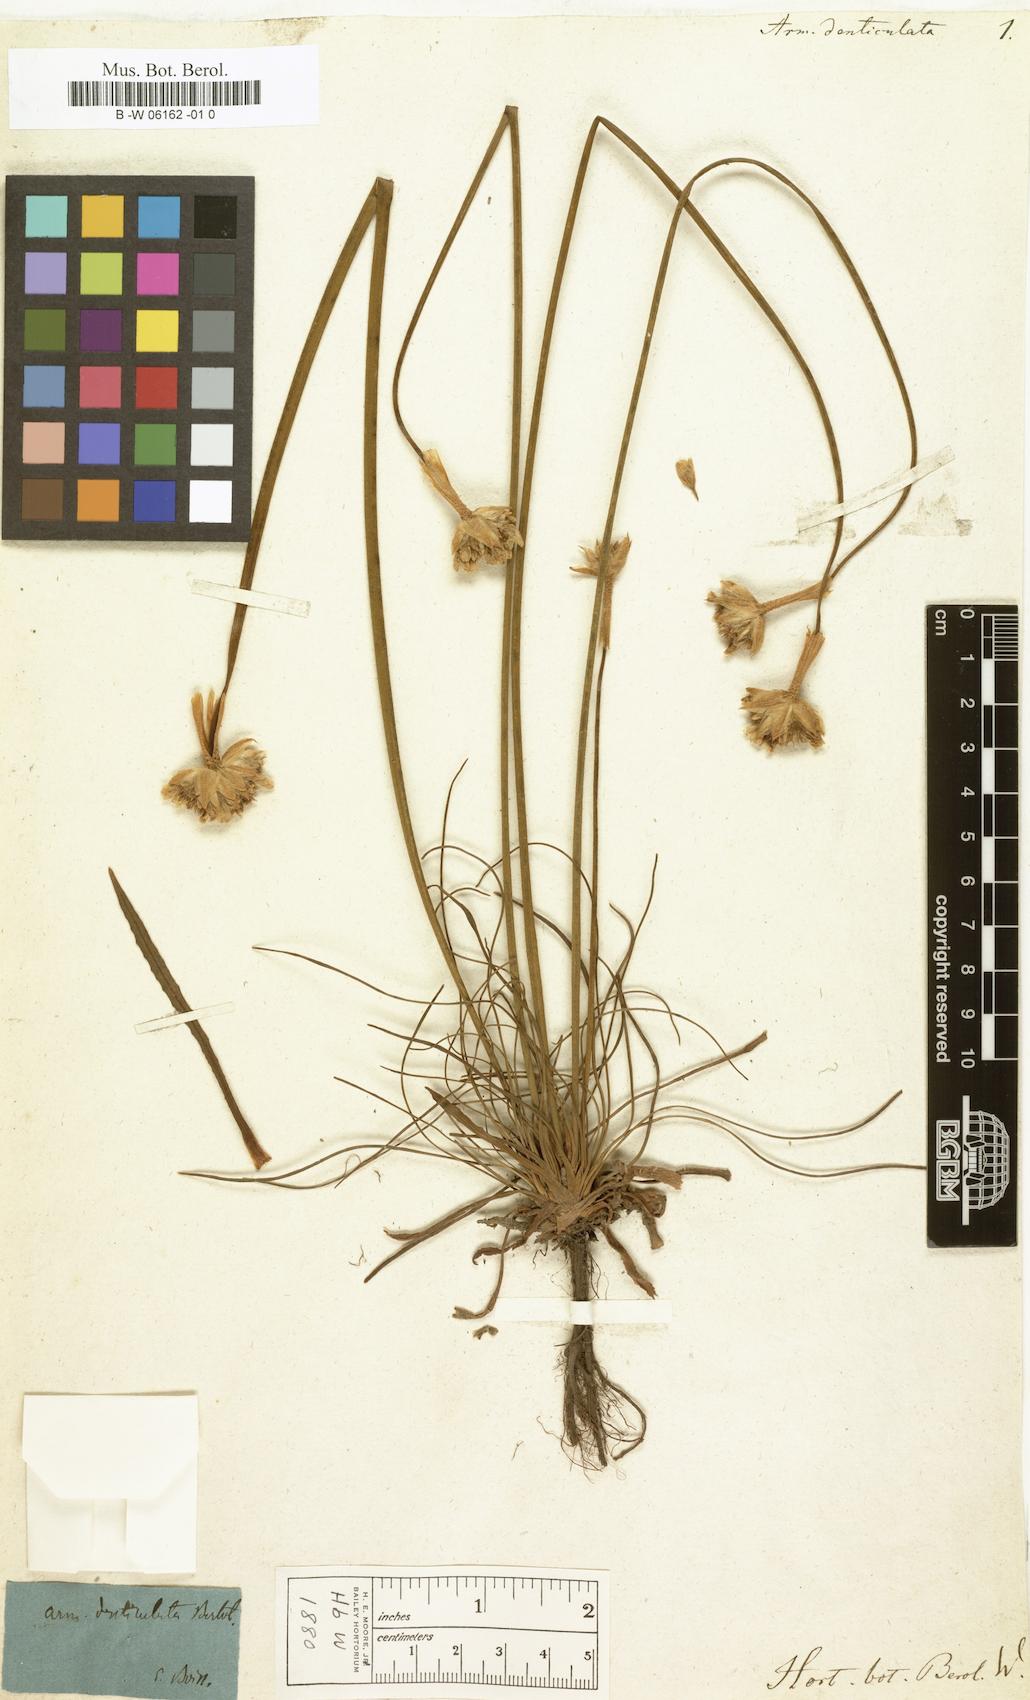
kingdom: Plantae
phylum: Tracheophyta
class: Magnoliopsida
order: Caryophyllales
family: Plumbaginaceae
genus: Armeria
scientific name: Armeria denticulata
